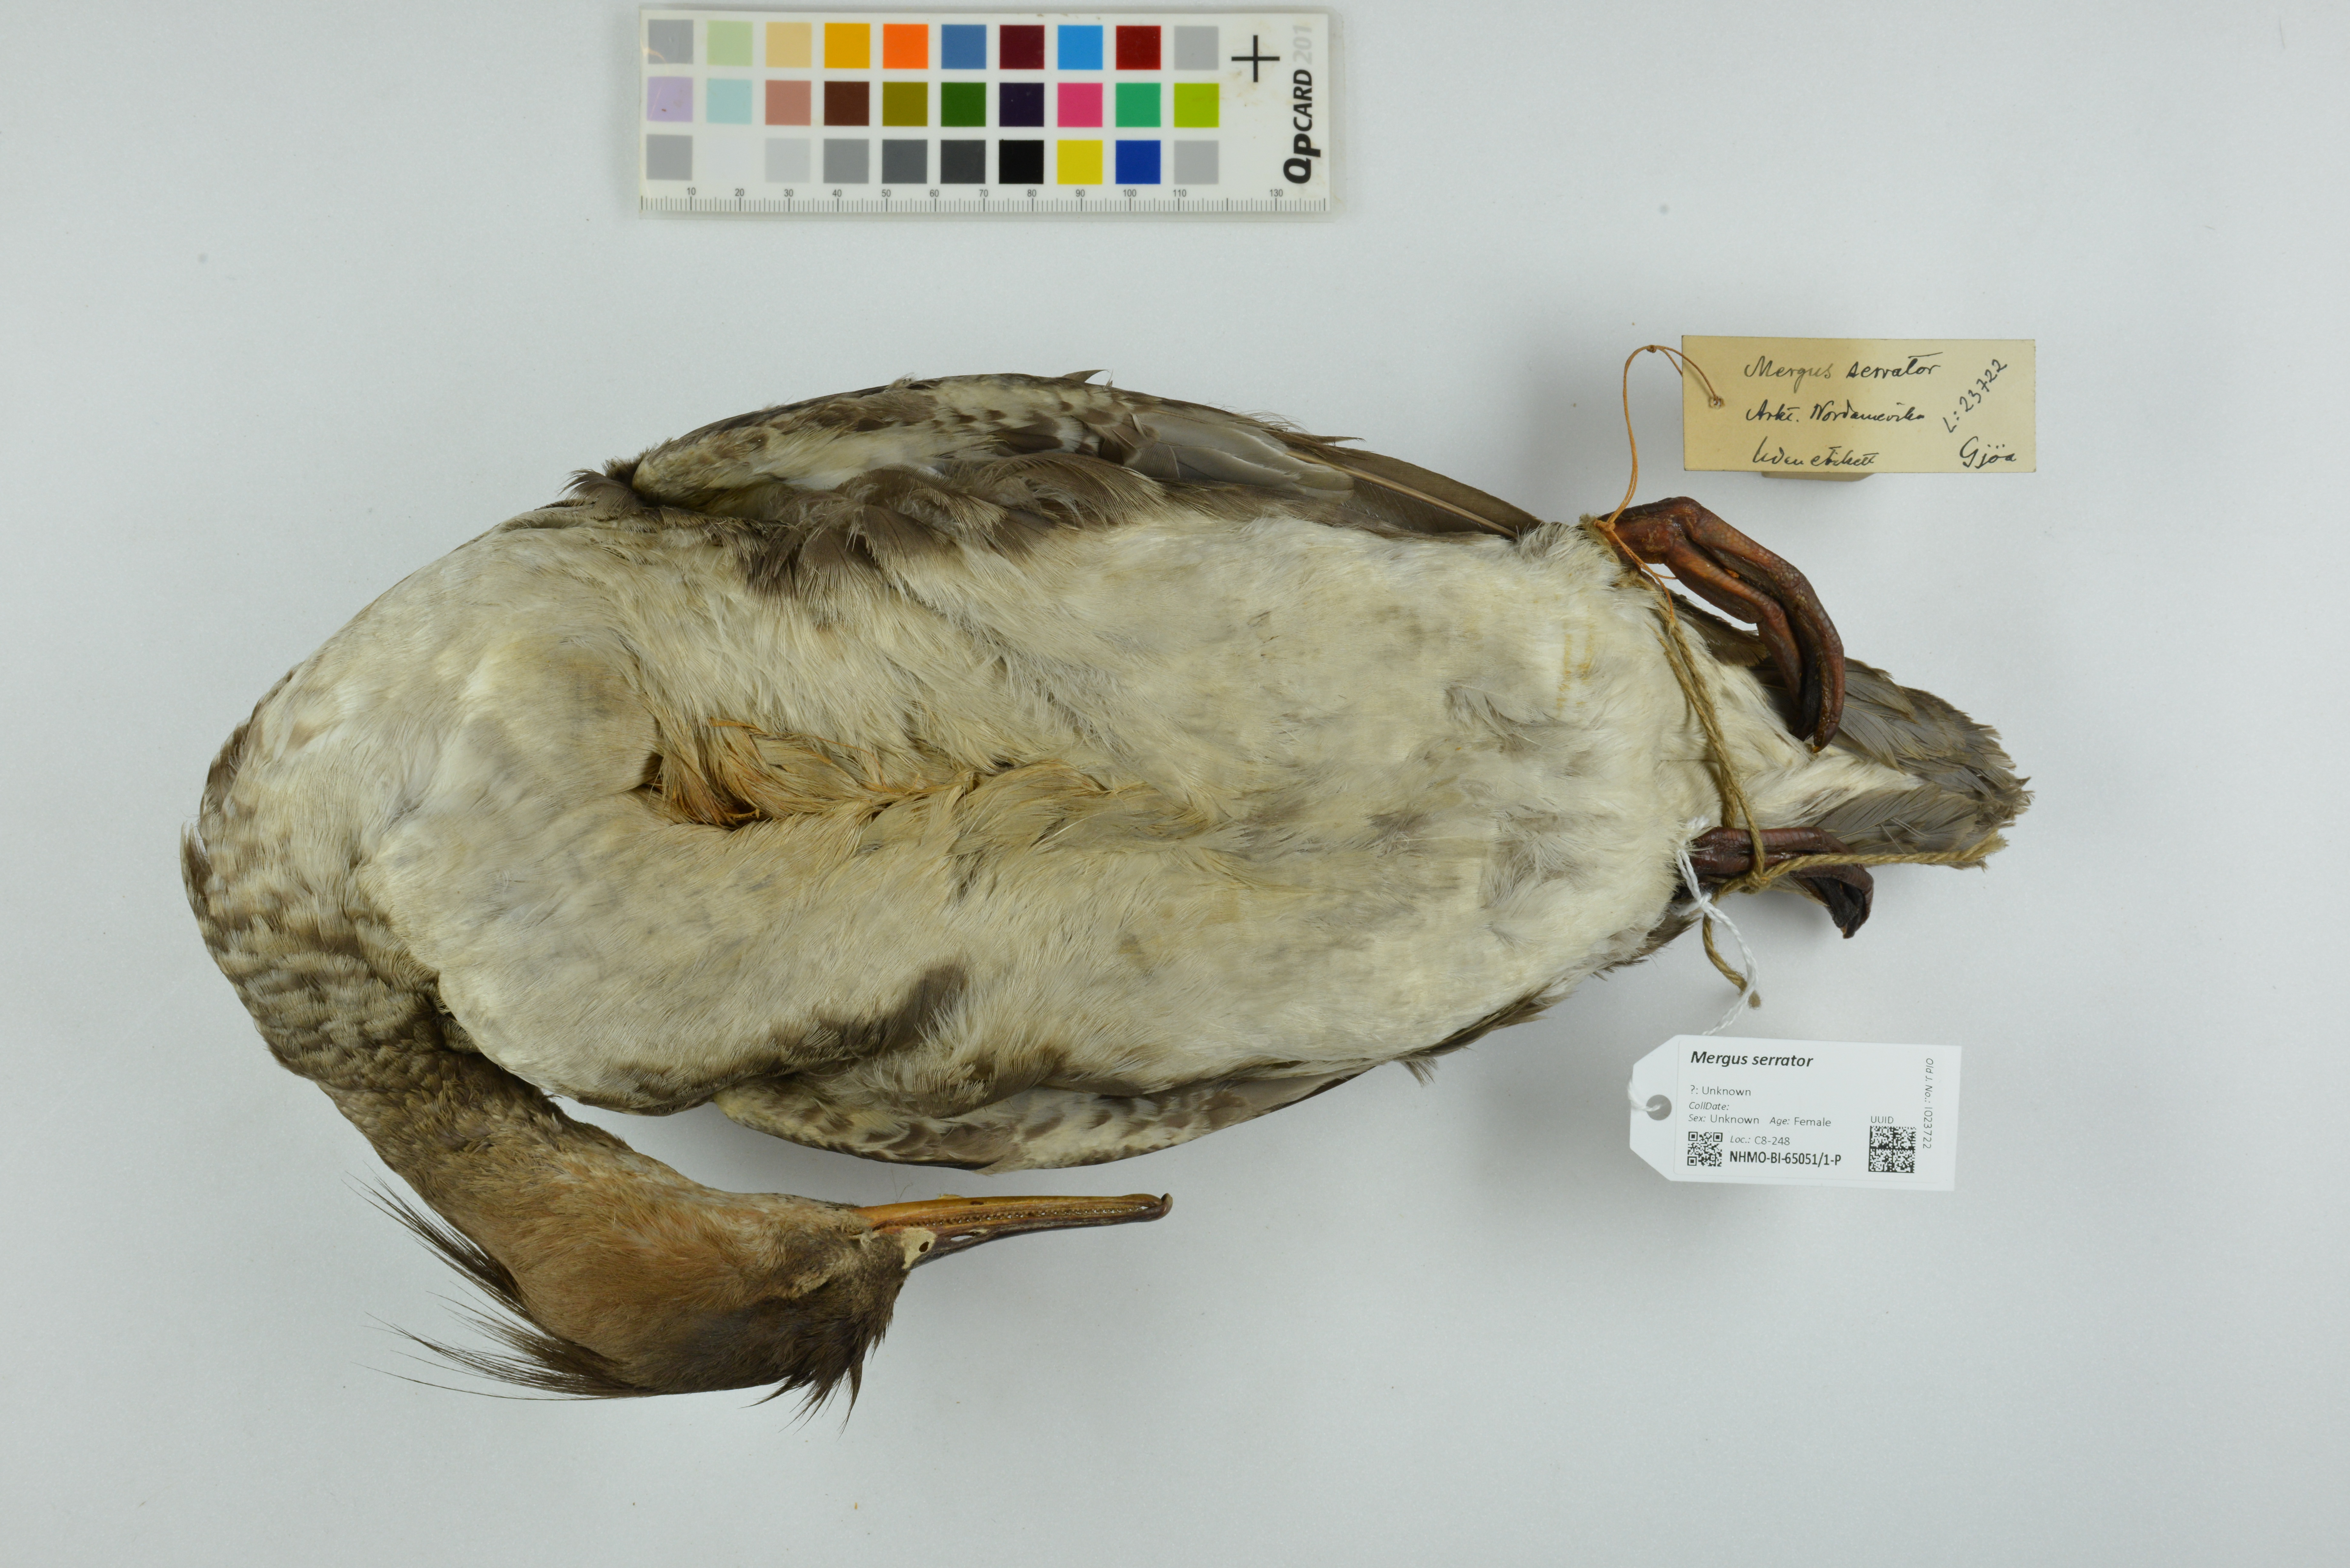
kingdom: Animalia
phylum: Chordata
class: Aves
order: Anseriformes
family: Anatidae
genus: Mergus
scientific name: Mergus serrator
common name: Red-breasted merganser
